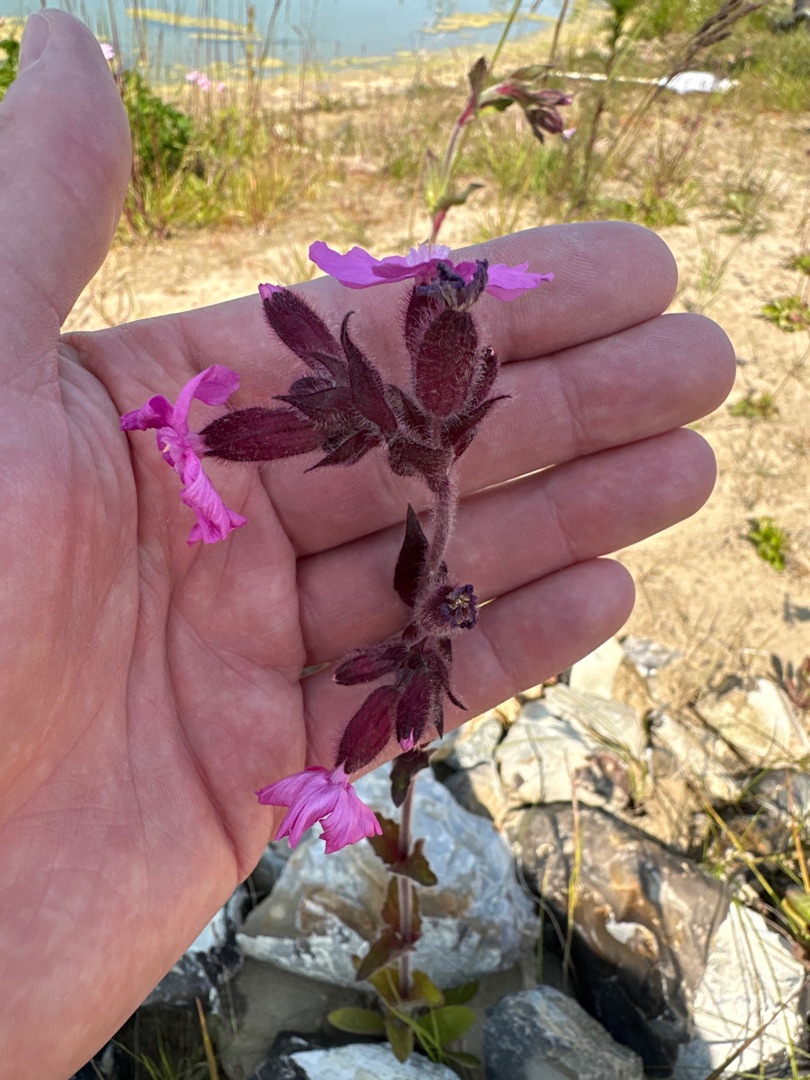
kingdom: Plantae
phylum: Tracheophyta
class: Magnoliopsida
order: Caryophyllales
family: Caryophyllaceae
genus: Silene
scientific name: Silene dioica
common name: Dagpragtstjerne
